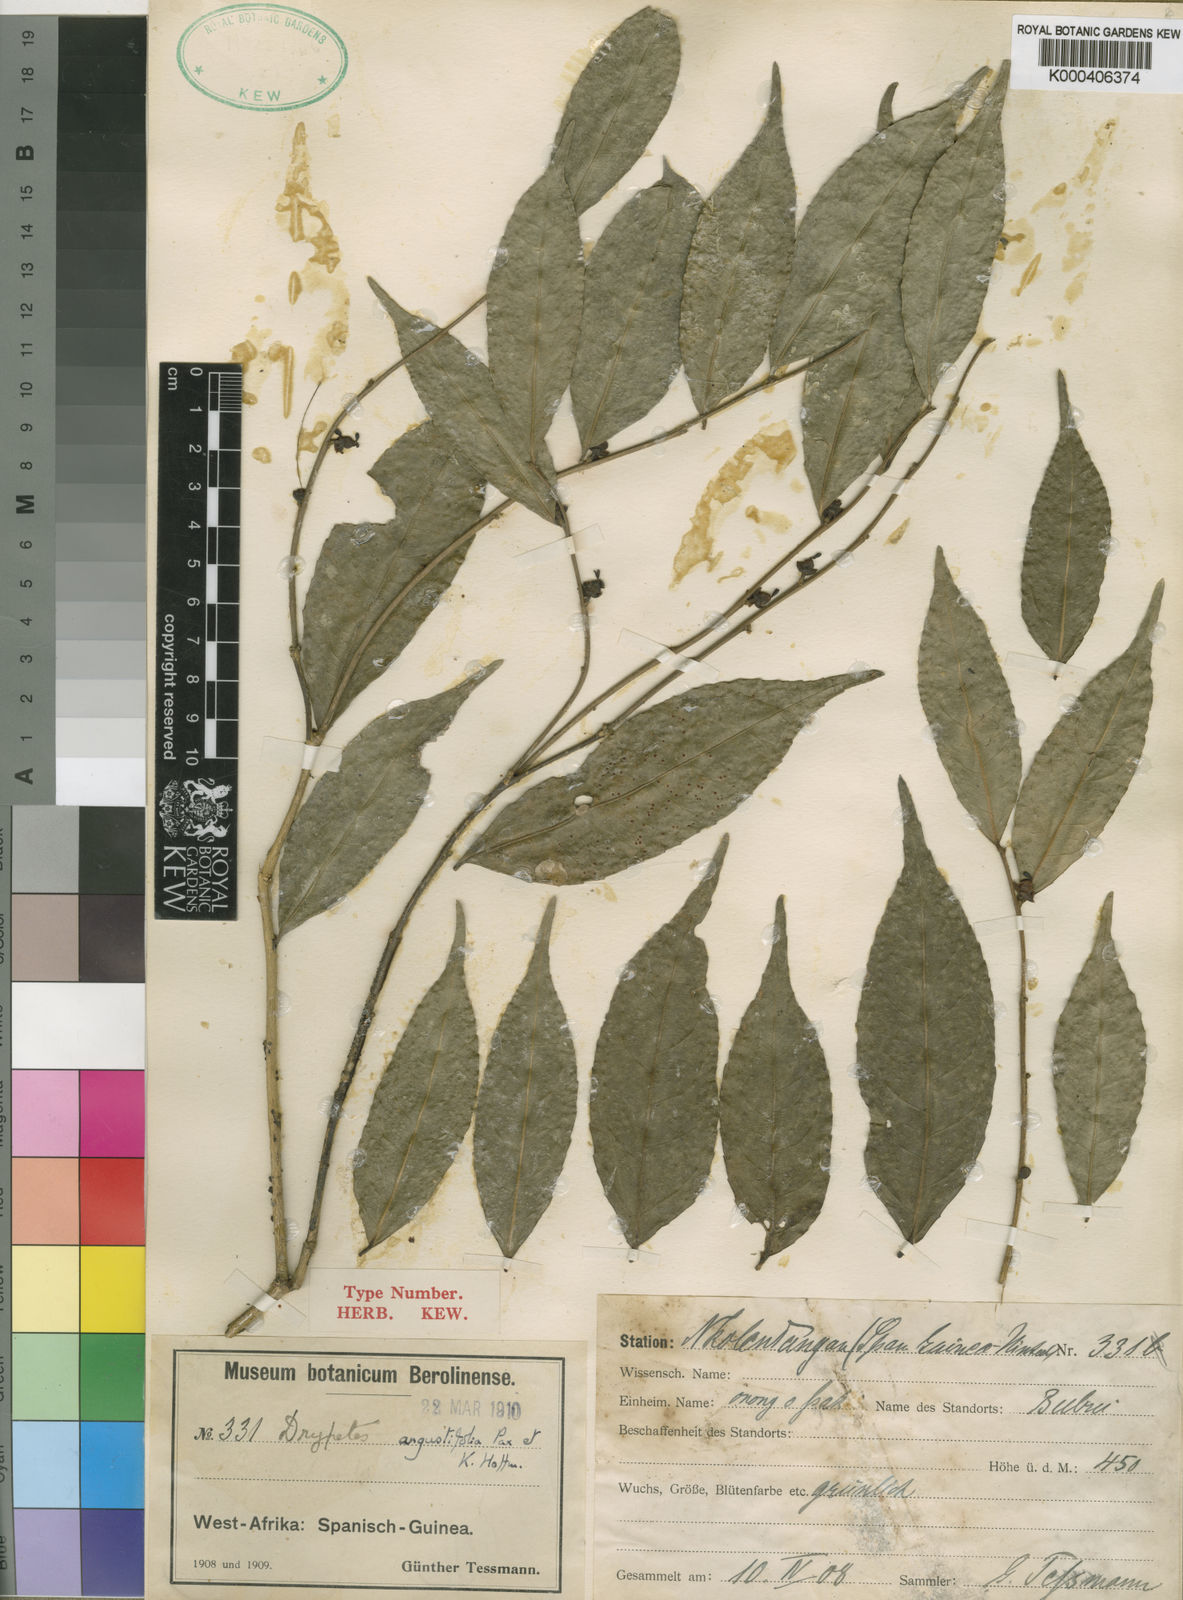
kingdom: Plantae
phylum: Tracheophyta
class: Magnoliopsida
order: Malpighiales
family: Putranjivaceae
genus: Drypetes
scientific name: Drypetes angustifolia
